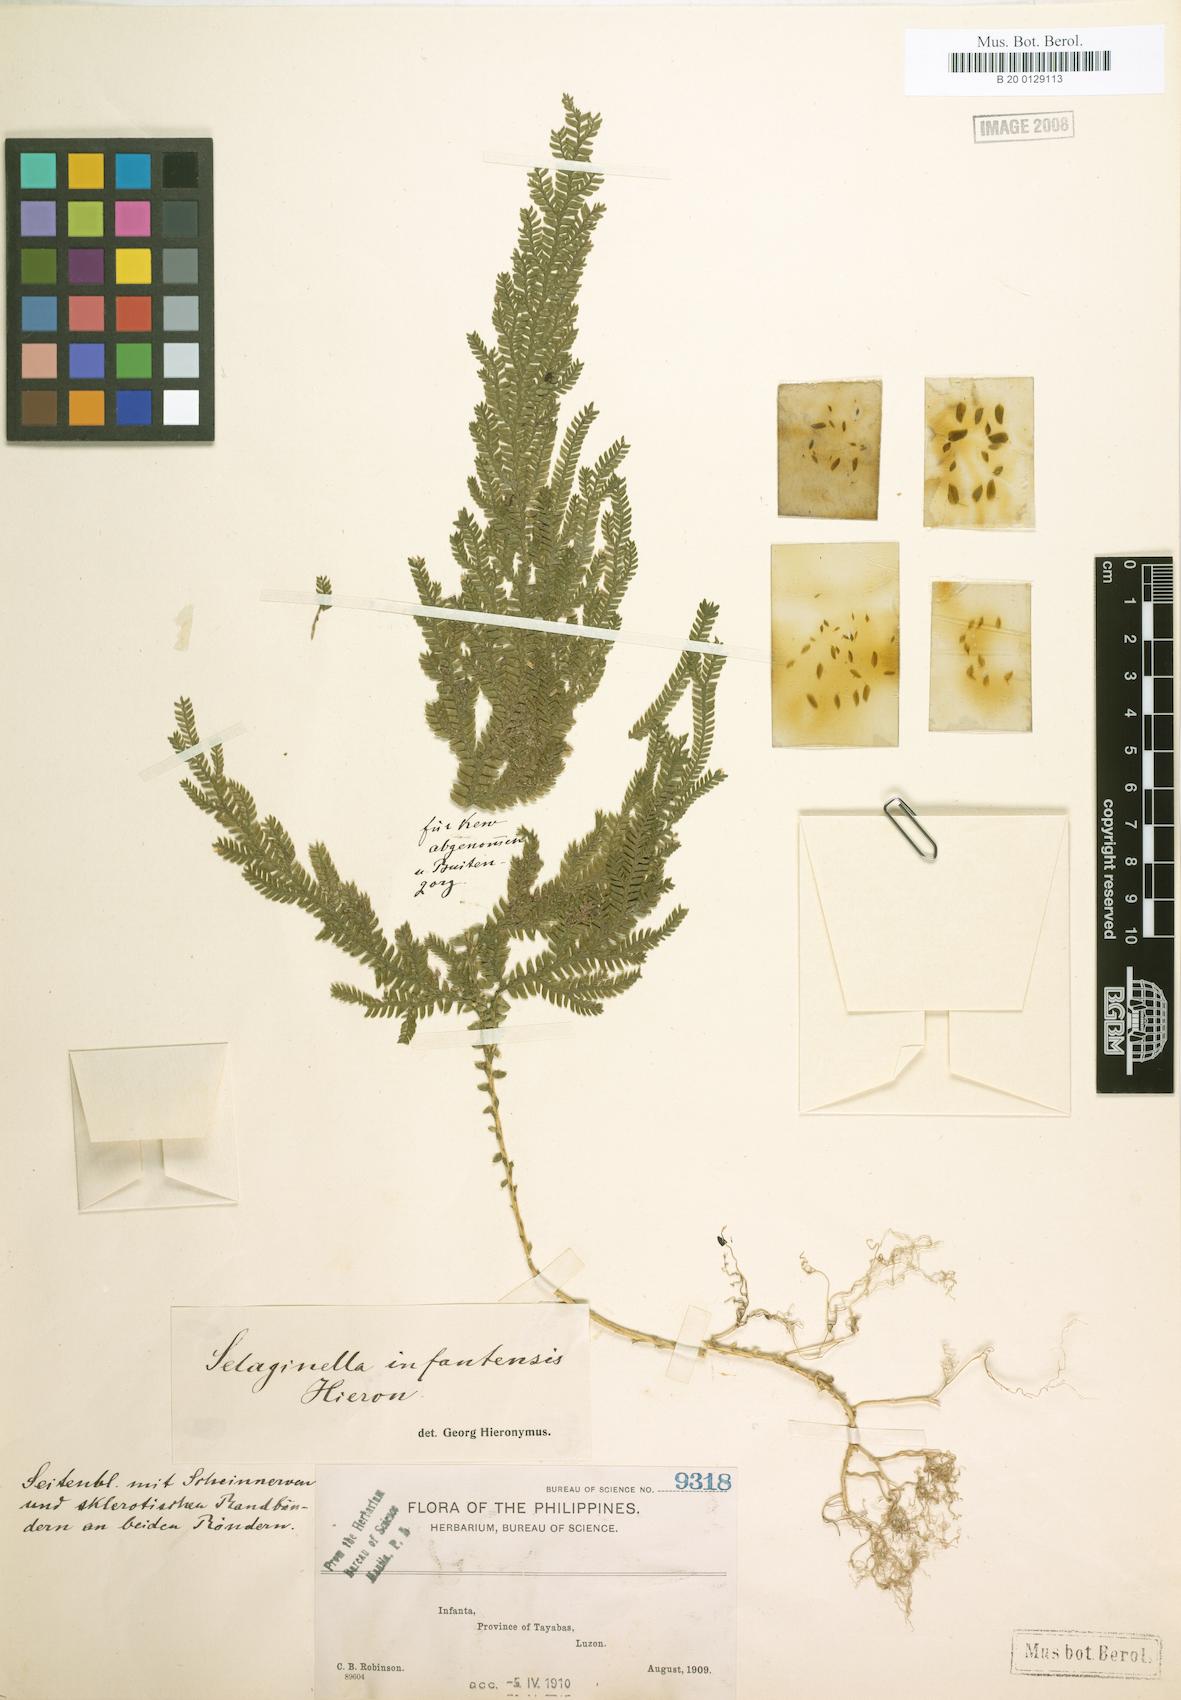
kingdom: Plantae
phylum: Tracheophyta
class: Lycopodiopsida
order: Selaginellales
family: Selaginellaceae
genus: Selaginella
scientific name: Selaginella jagorii
